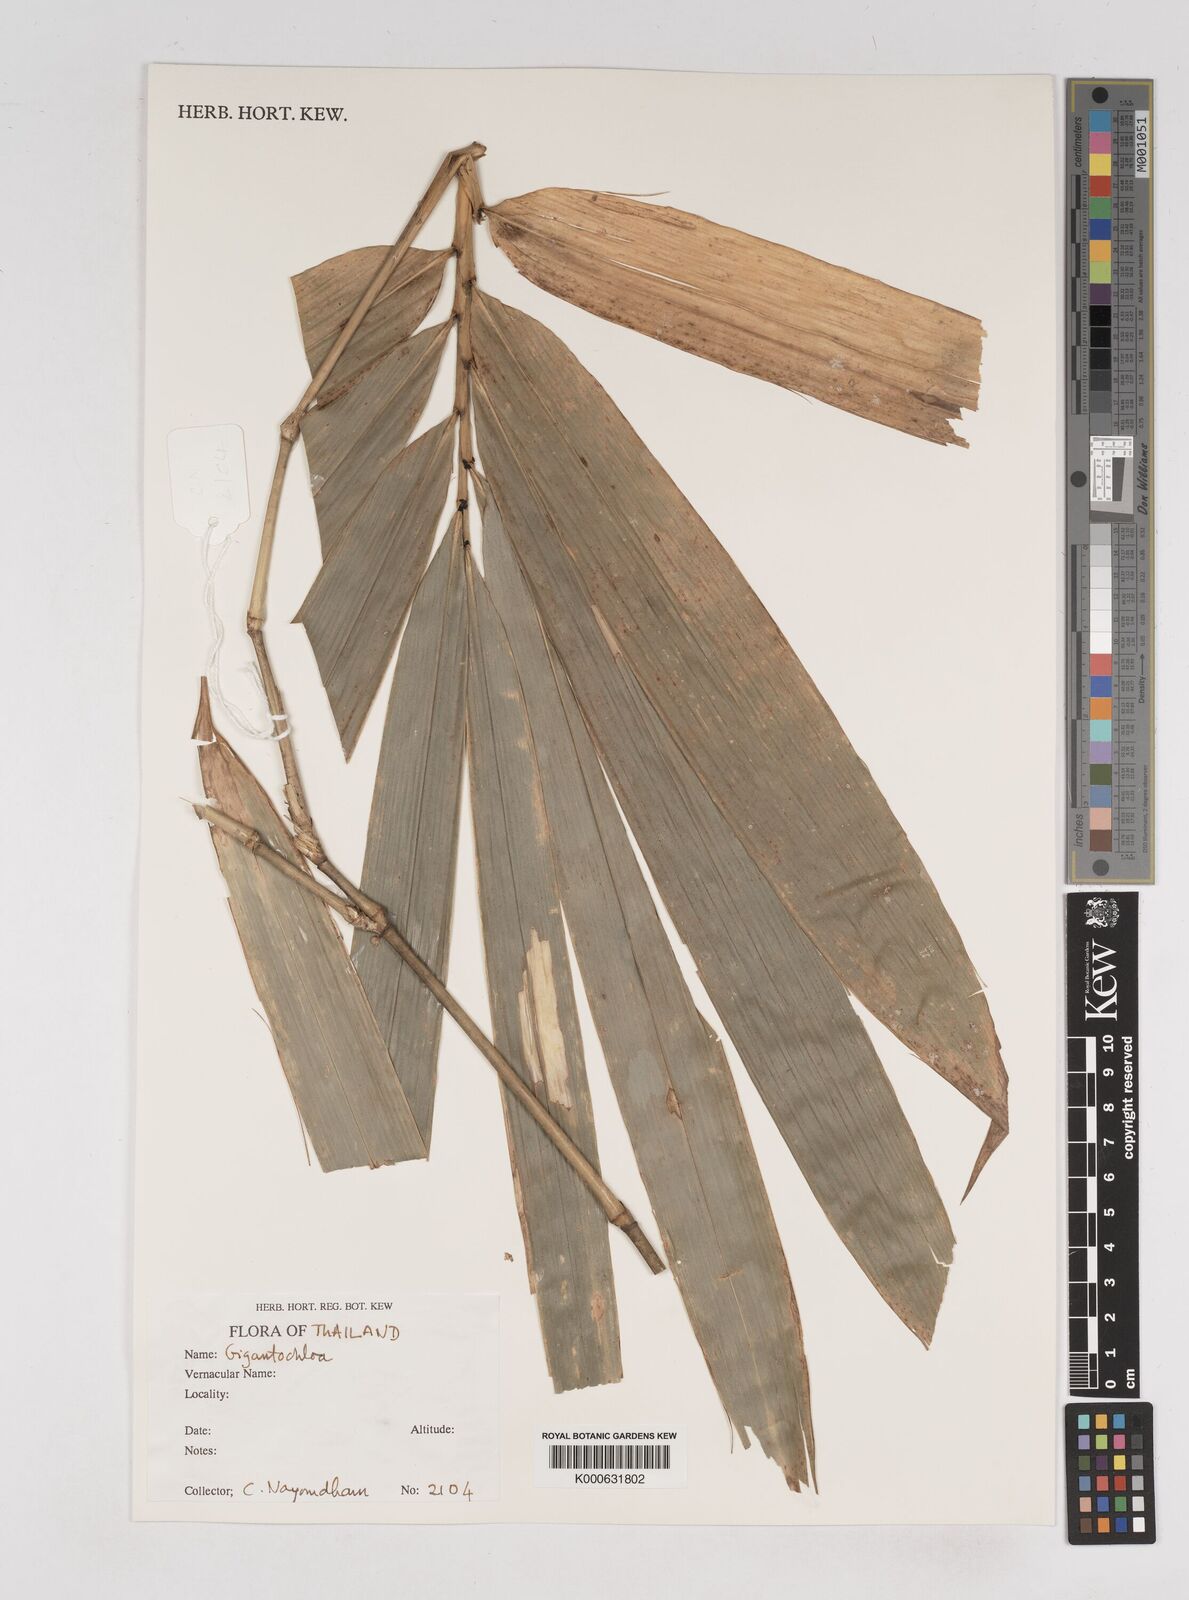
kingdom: Plantae
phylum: Tracheophyta
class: Liliopsida
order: Poales
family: Poaceae
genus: Gigantochloa
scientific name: Gigantochloa
